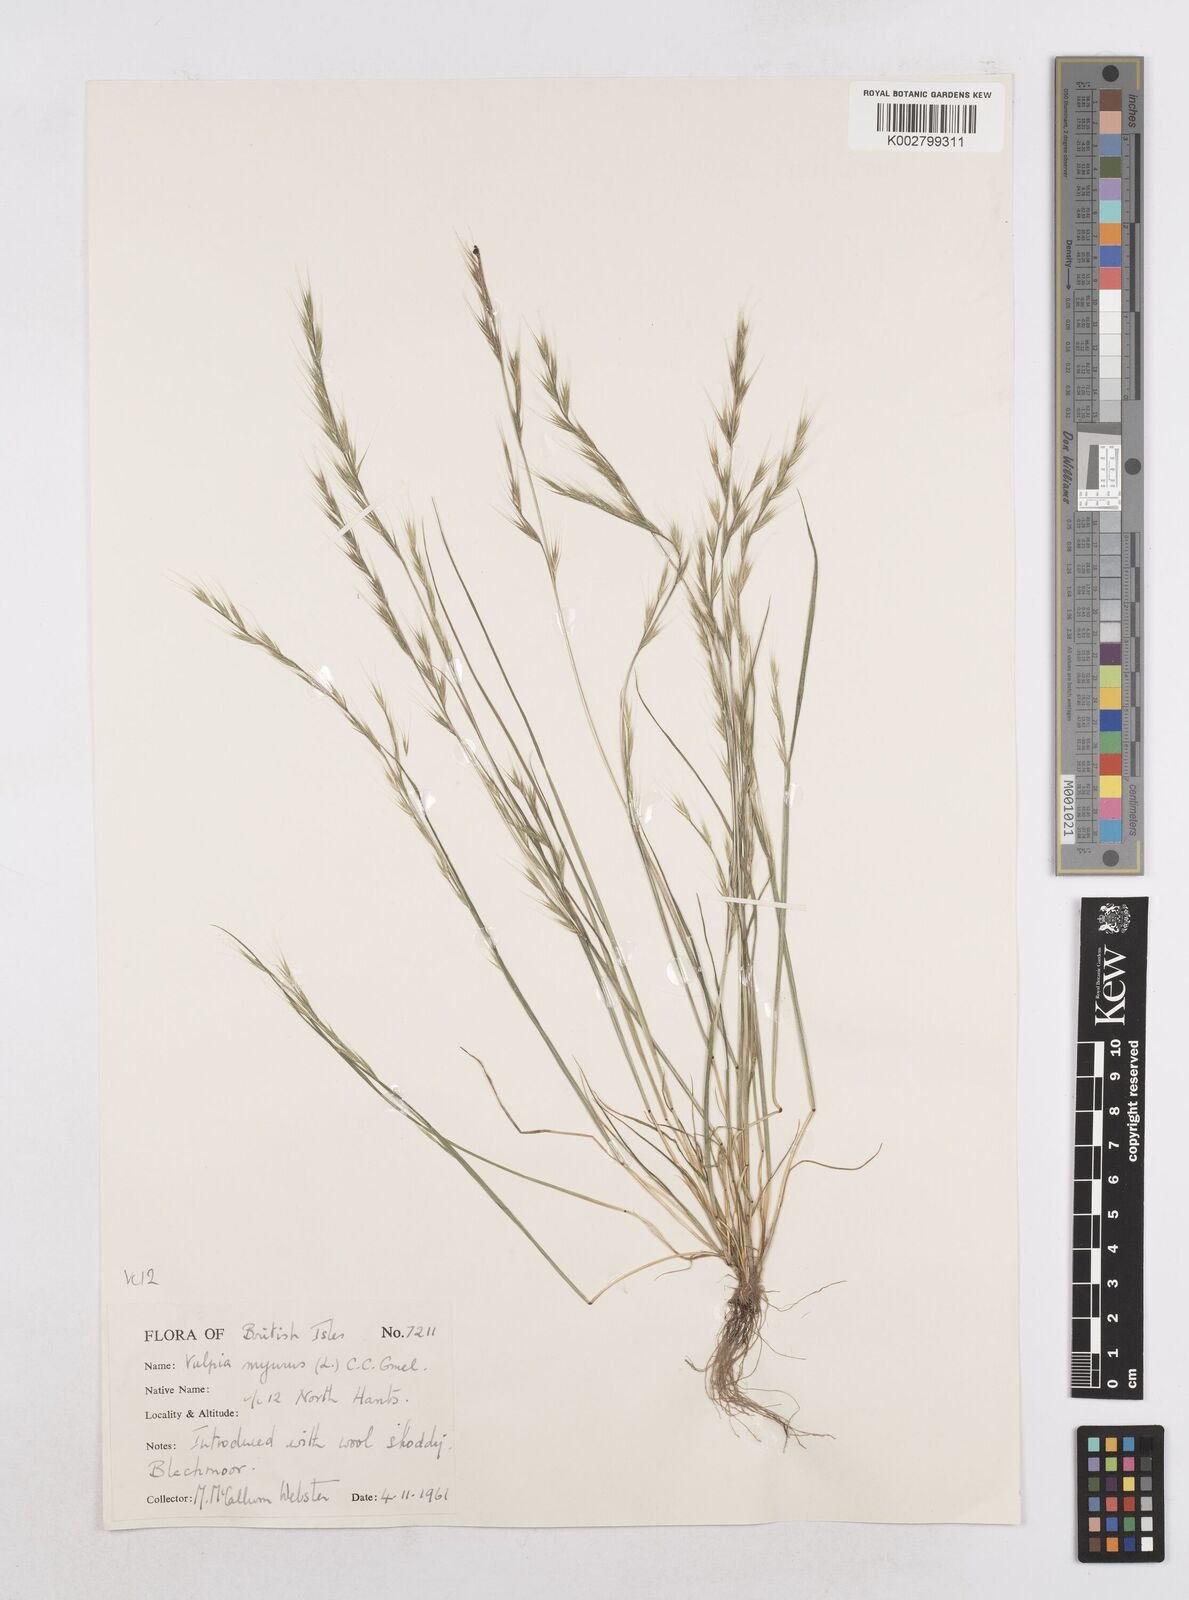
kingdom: Plantae
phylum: Tracheophyta
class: Liliopsida
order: Poales
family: Poaceae
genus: Festuca
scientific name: Festuca myuros
